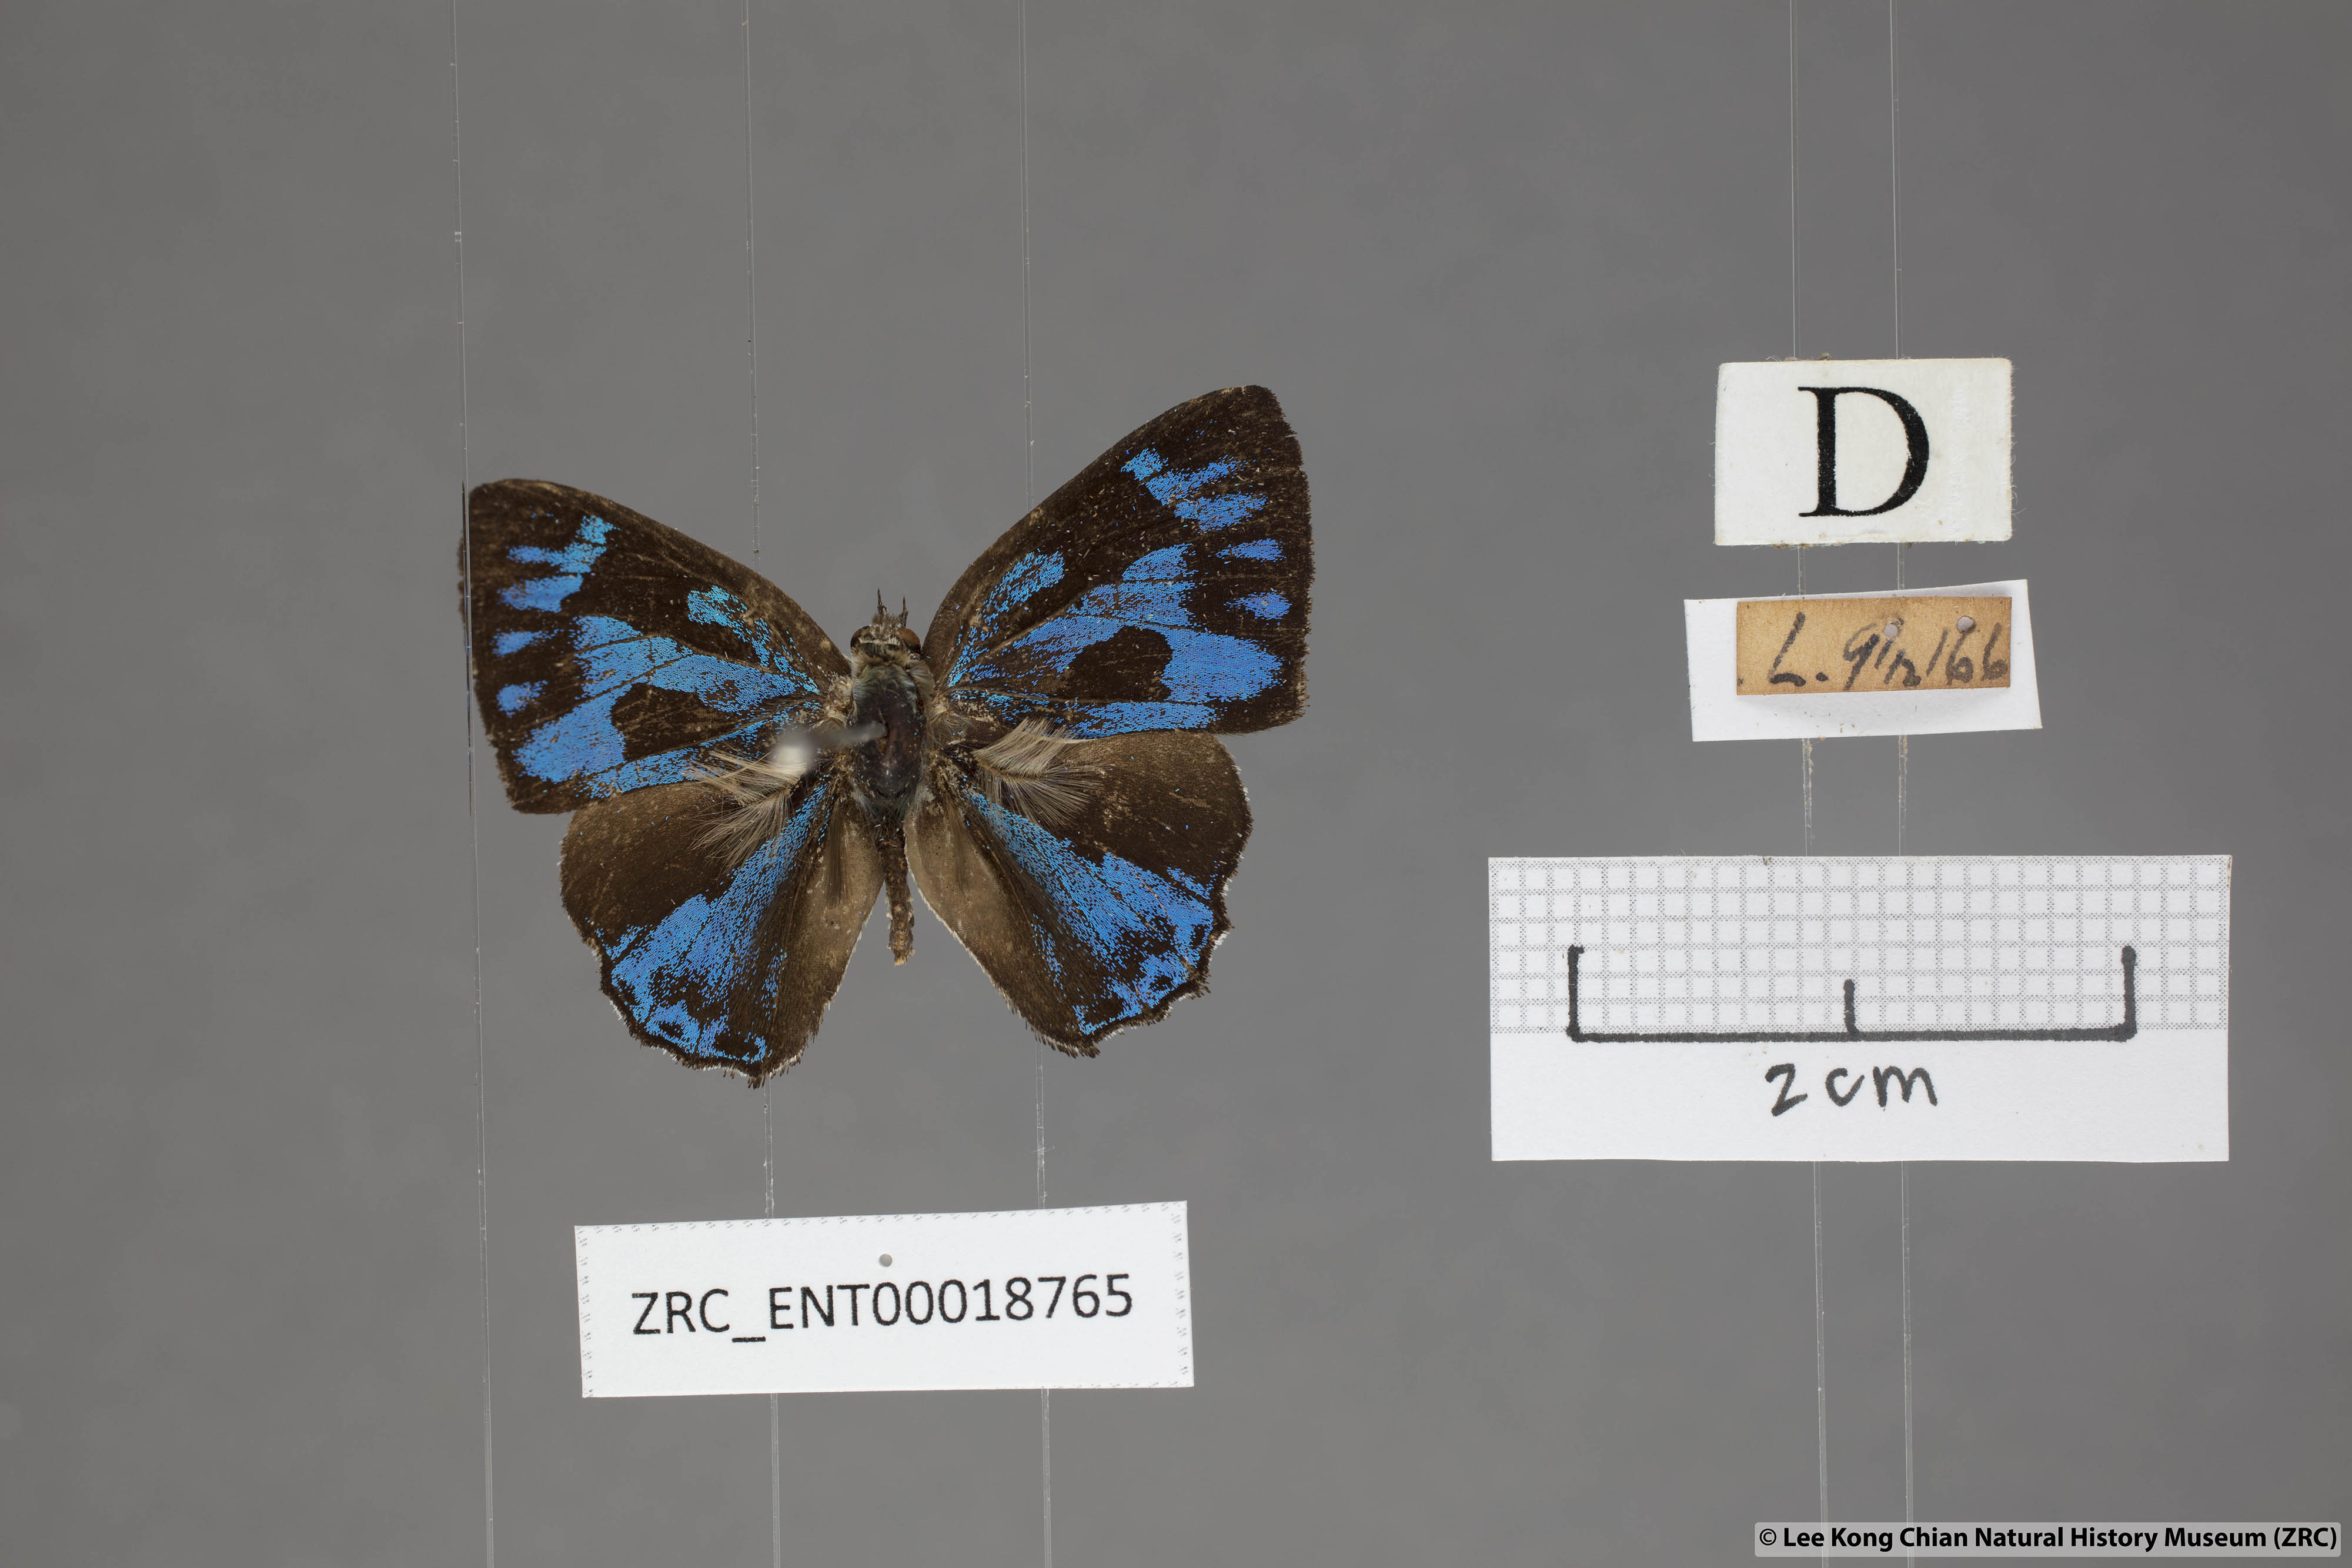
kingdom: Animalia
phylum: Arthropoda
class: Insecta
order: Lepidoptera
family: Lycaenidae
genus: Poritia
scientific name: Poritia erycinoides
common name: Blue gem
